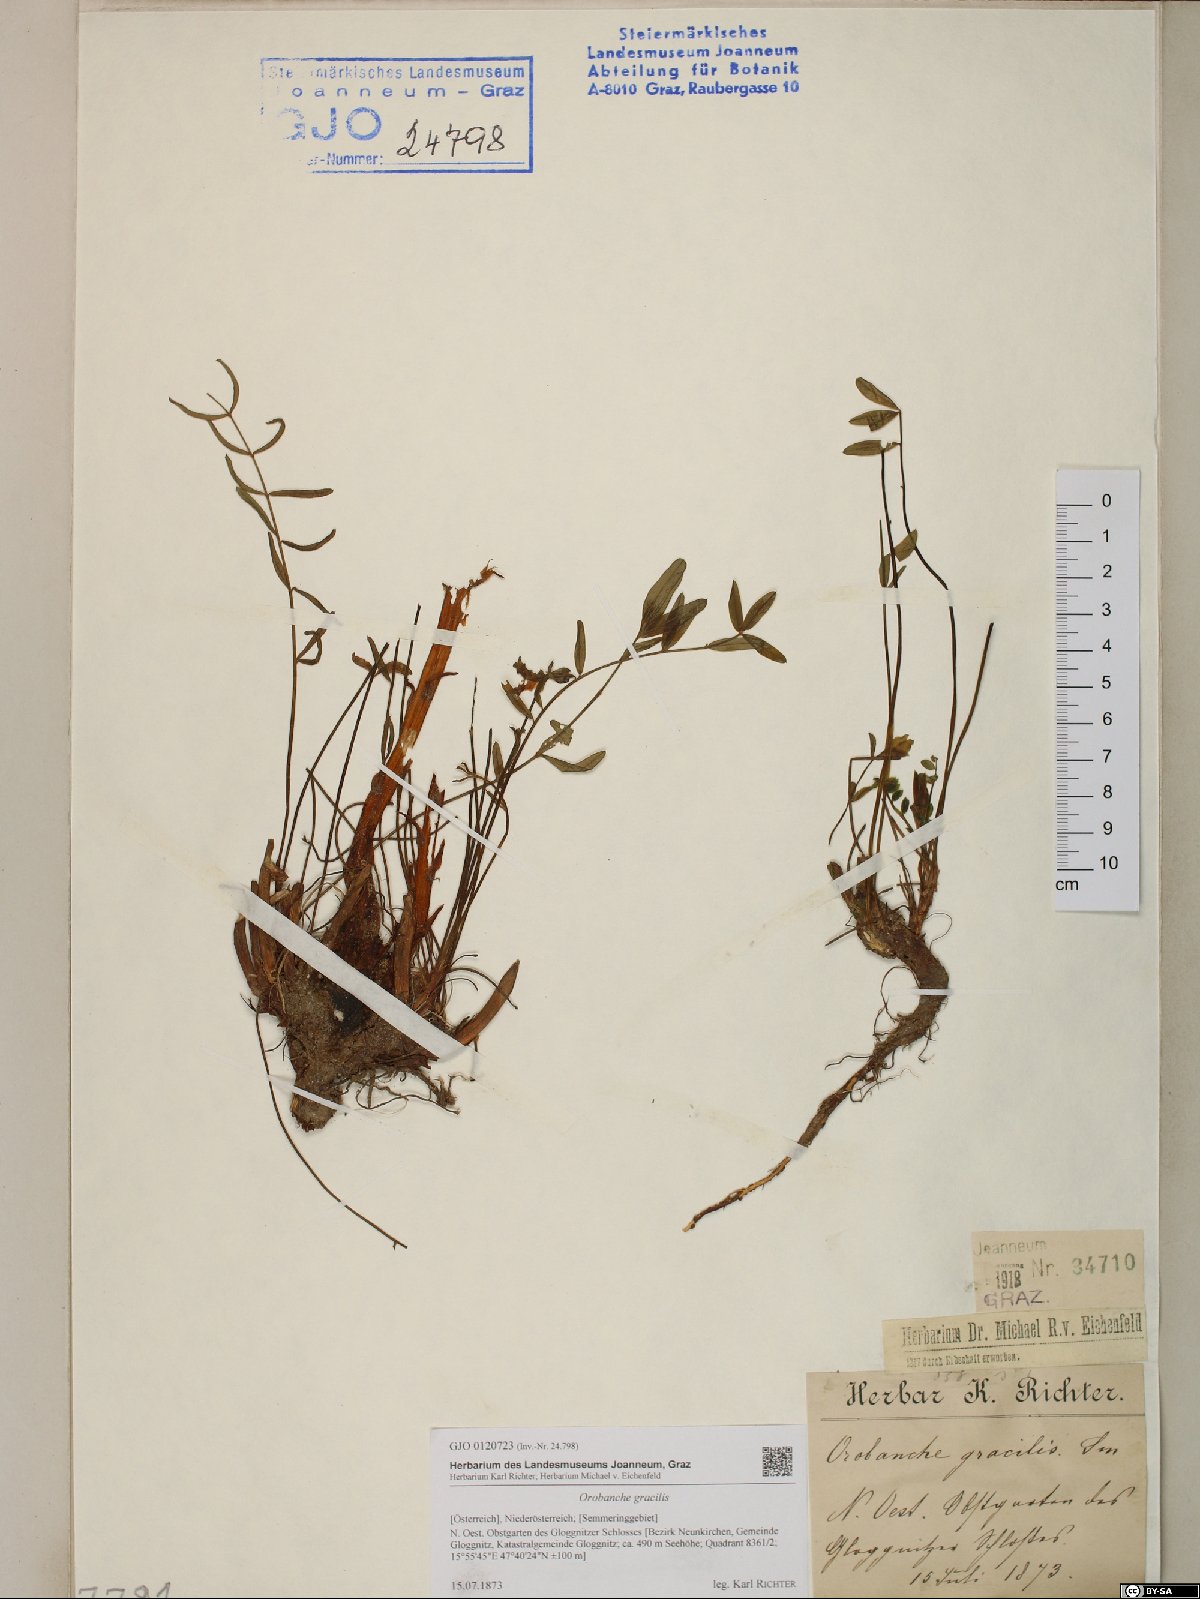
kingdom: Plantae
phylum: Tracheophyta
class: Magnoliopsida
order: Lamiales
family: Orobanchaceae
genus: Orobanche
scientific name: Orobanche gracilis
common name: Slender broomrape
